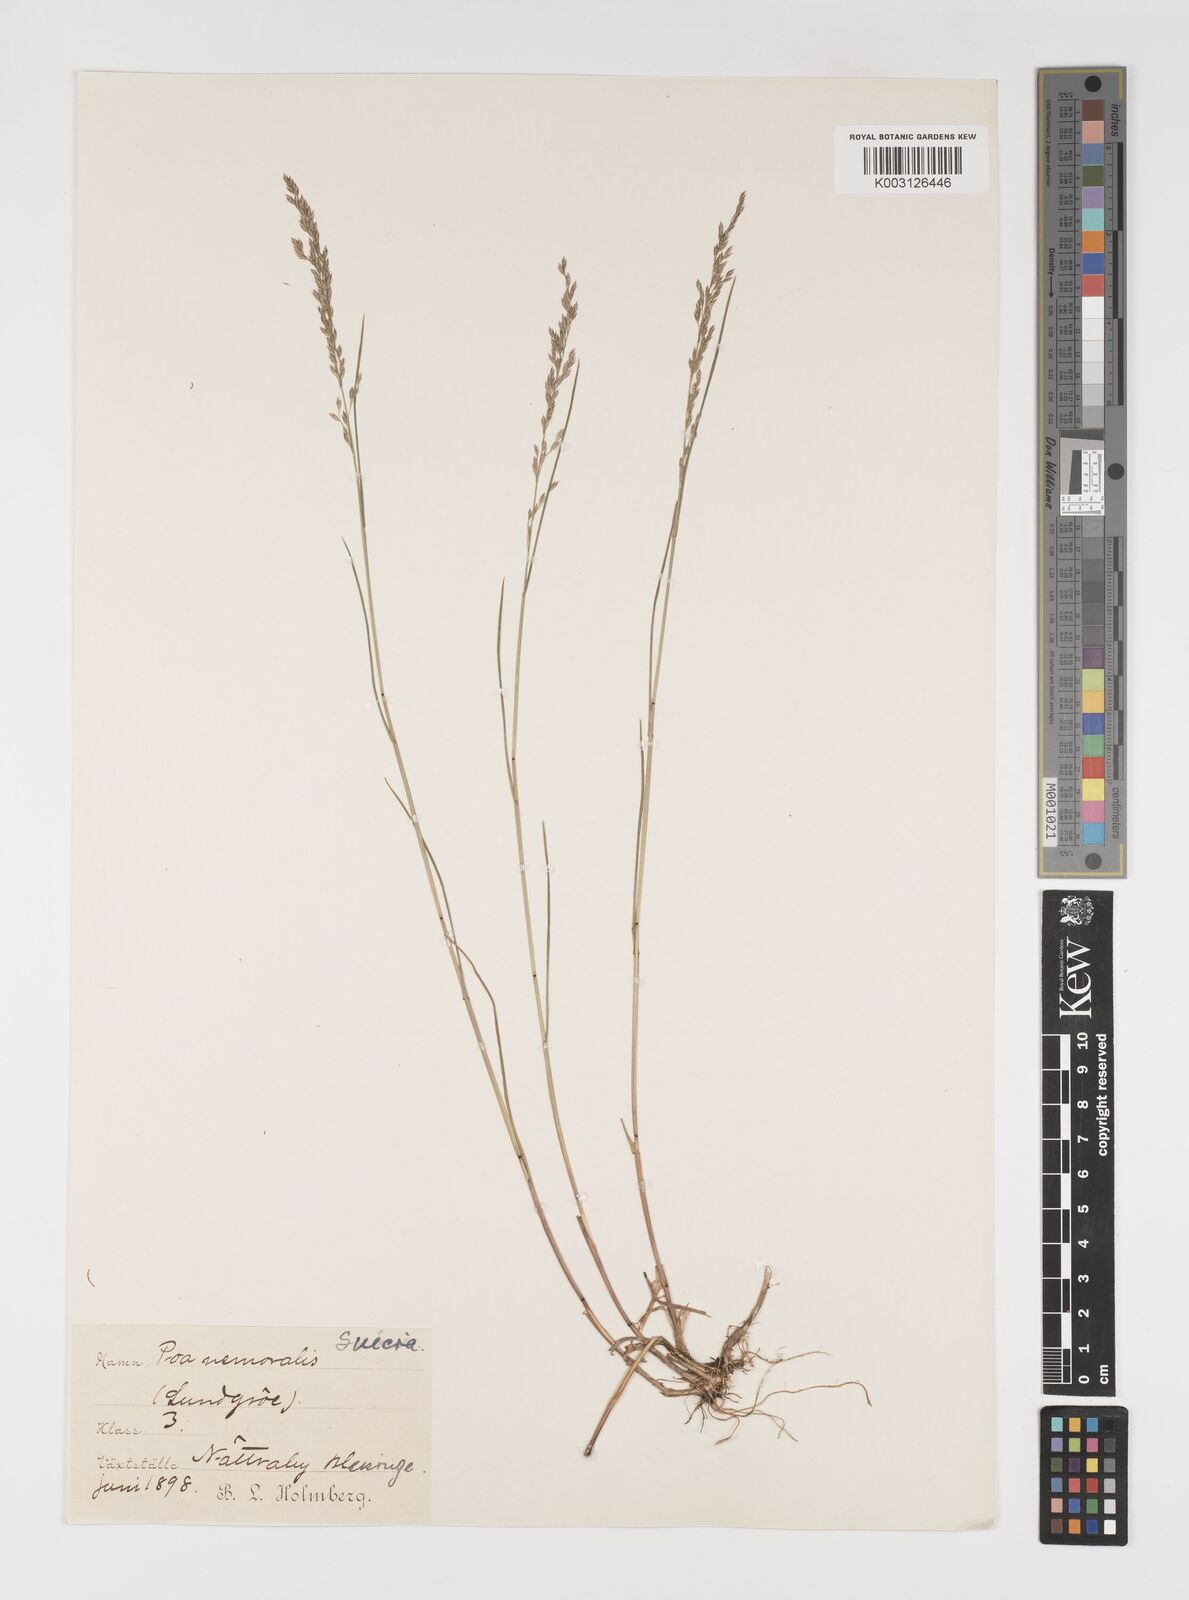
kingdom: Plantae
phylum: Tracheophyta
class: Liliopsida
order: Poales
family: Poaceae
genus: Poa
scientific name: Poa nemoralis
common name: Wood bluegrass
